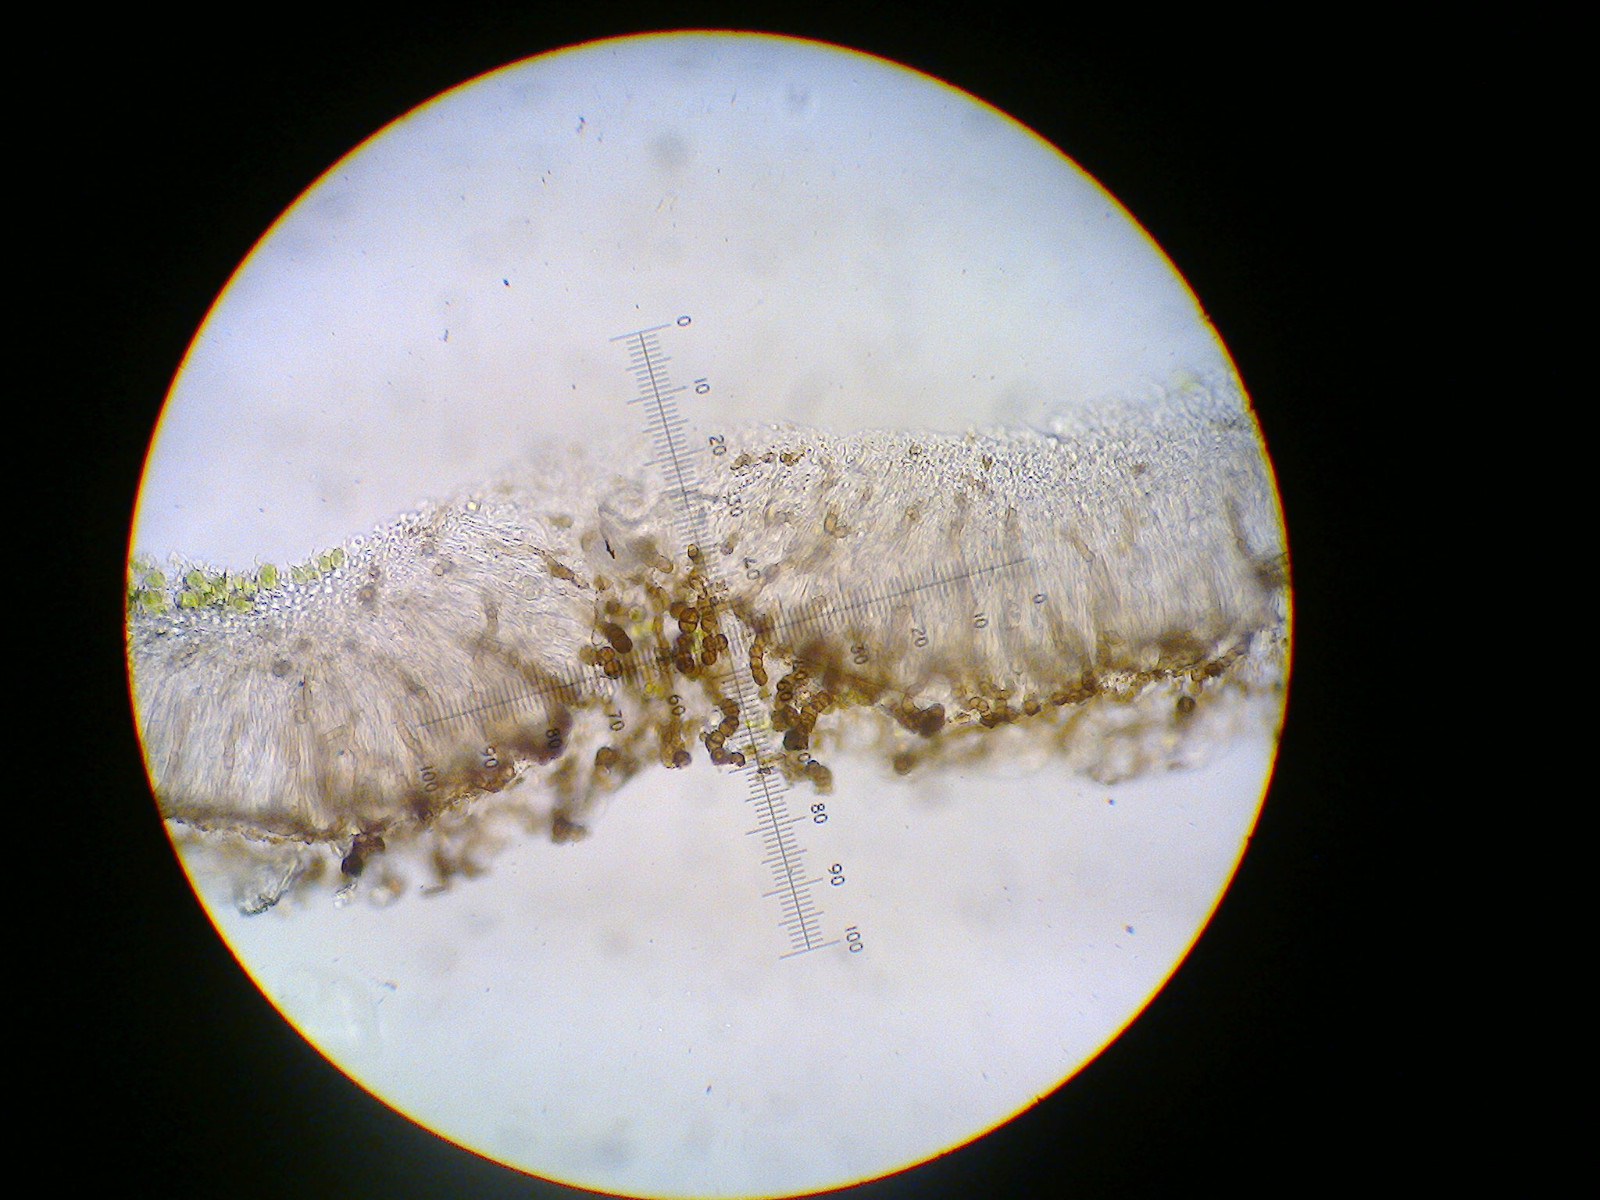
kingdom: Fungi
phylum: Ascomycota
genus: Intralichen
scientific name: Intralichen christiansenii
